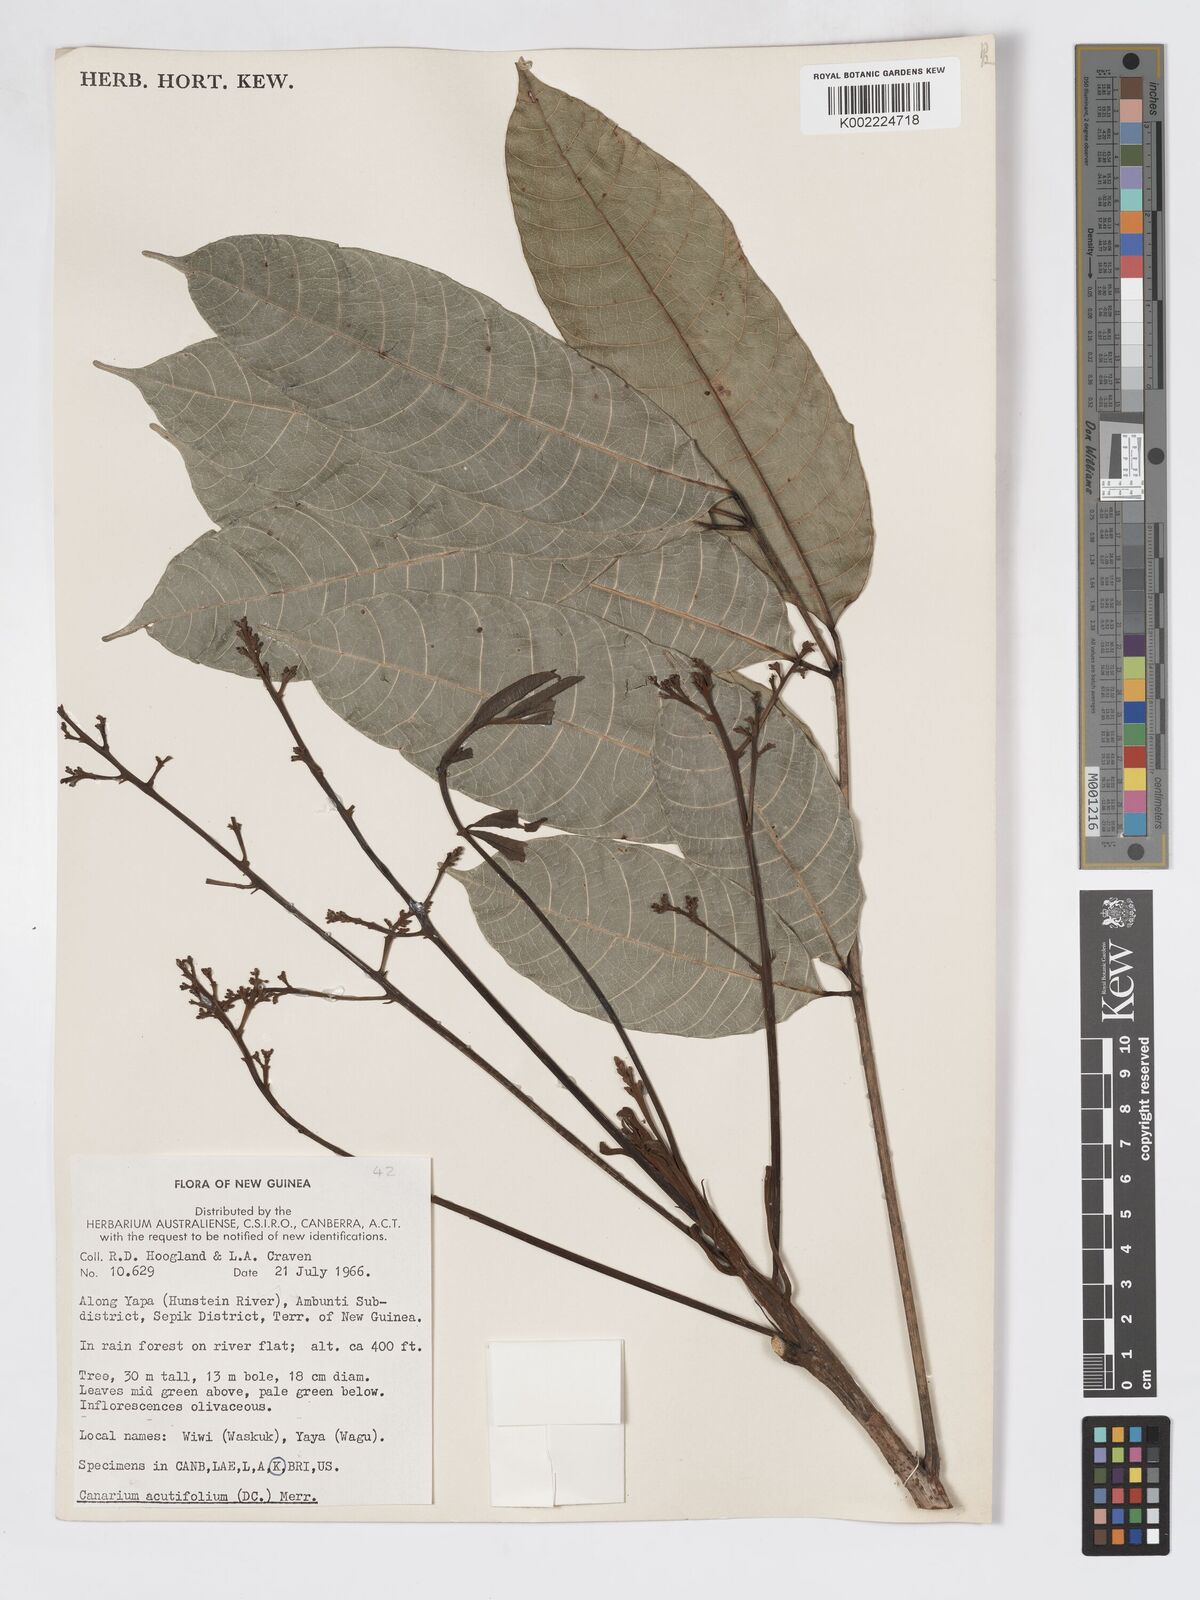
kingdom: Plantae
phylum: Tracheophyta
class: Magnoliopsida
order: Sapindales
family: Burseraceae
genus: Canarium
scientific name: Canarium acutifolium
